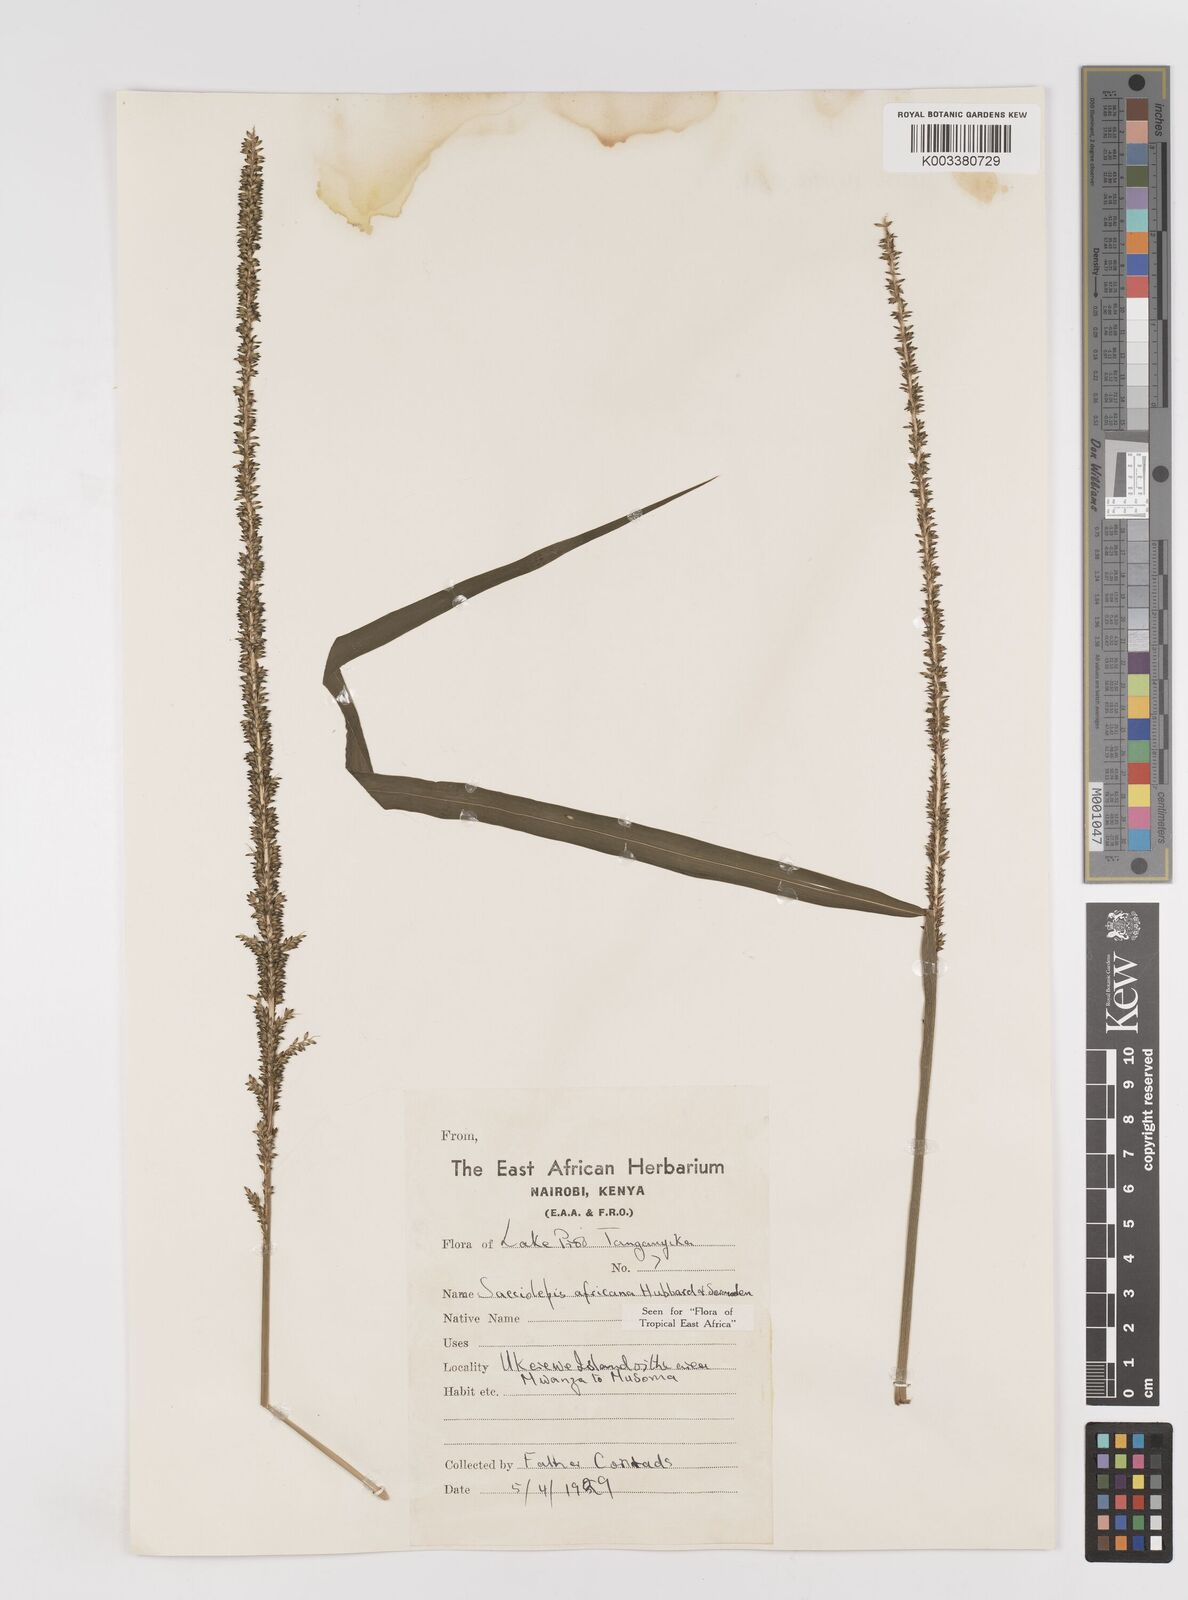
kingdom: Plantae
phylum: Tracheophyta
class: Liliopsida
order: Poales
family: Poaceae
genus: Sacciolepis
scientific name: Sacciolepis africana
